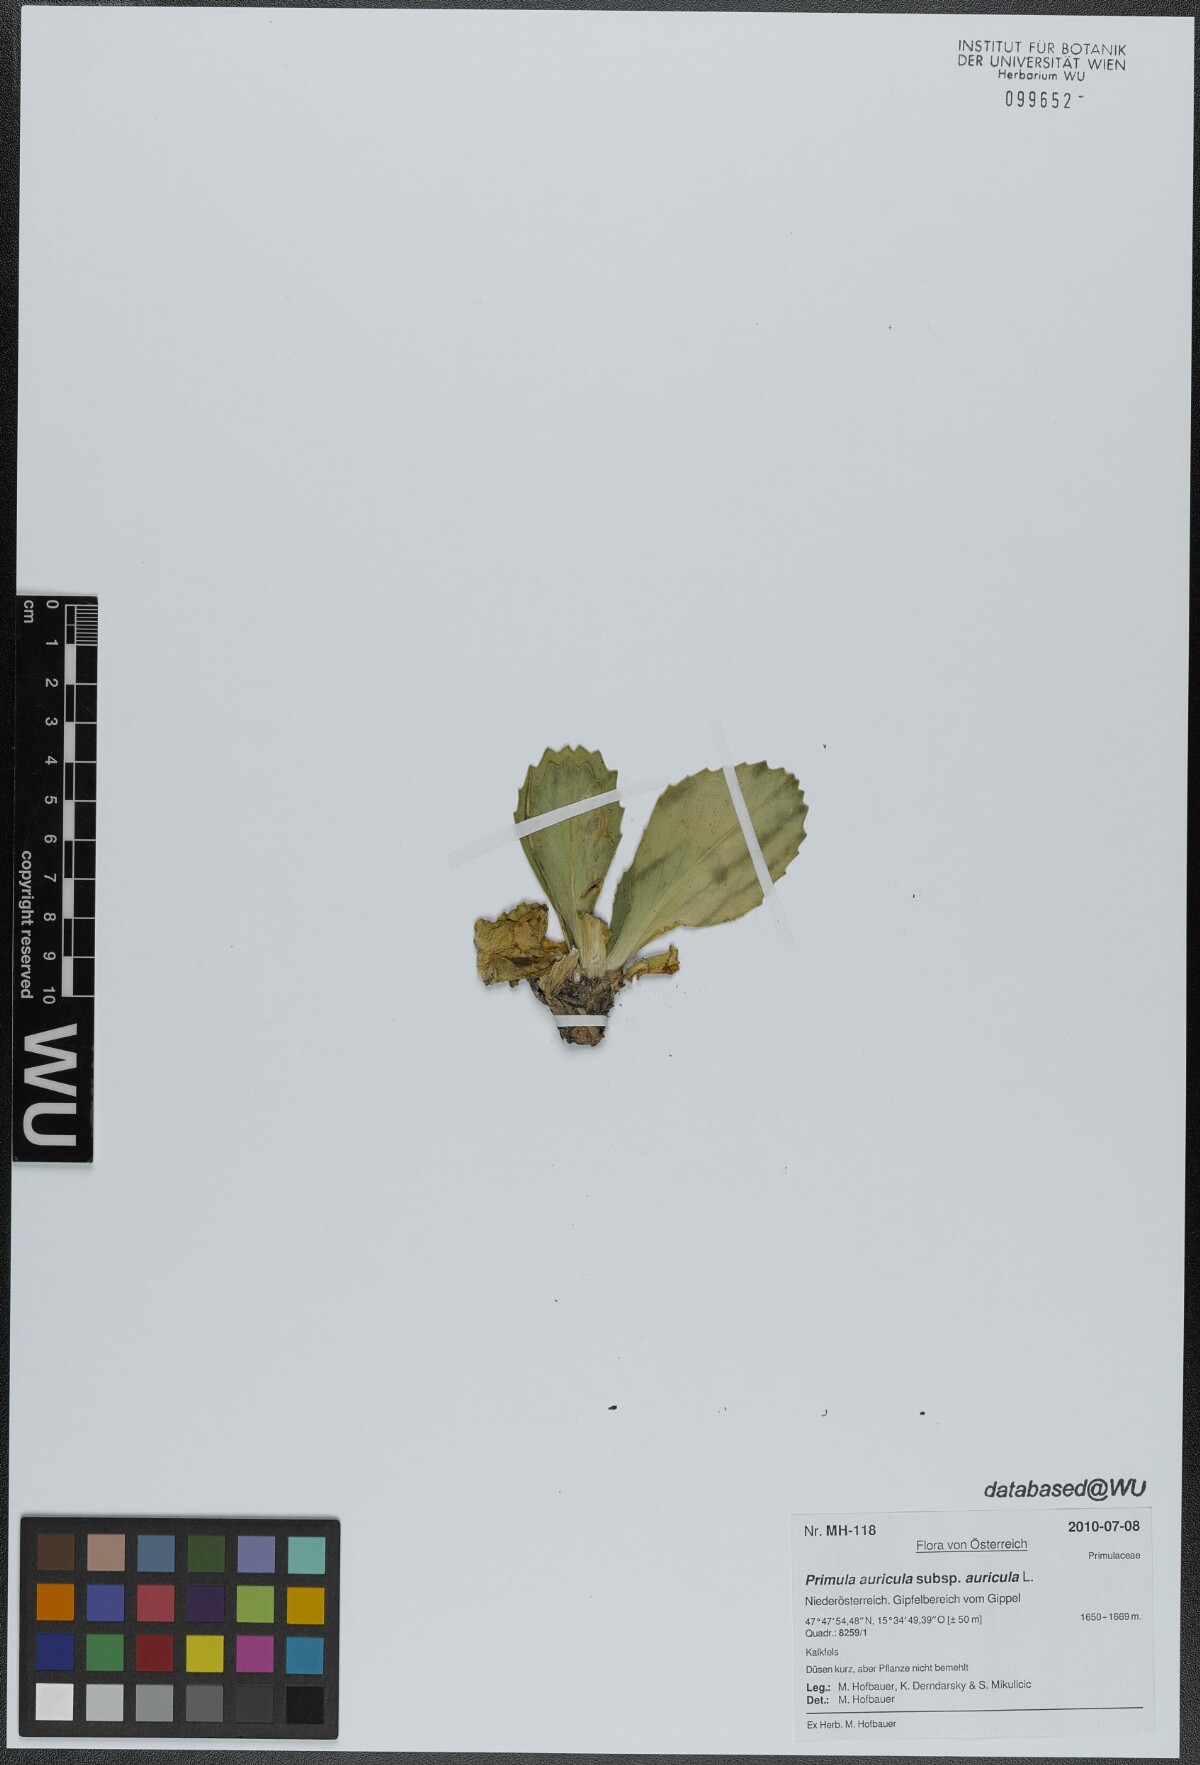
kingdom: Plantae
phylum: Tracheophyta
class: Magnoliopsida
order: Ericales
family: Primulaceae
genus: Primula
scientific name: Primula auricula
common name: Auricula
